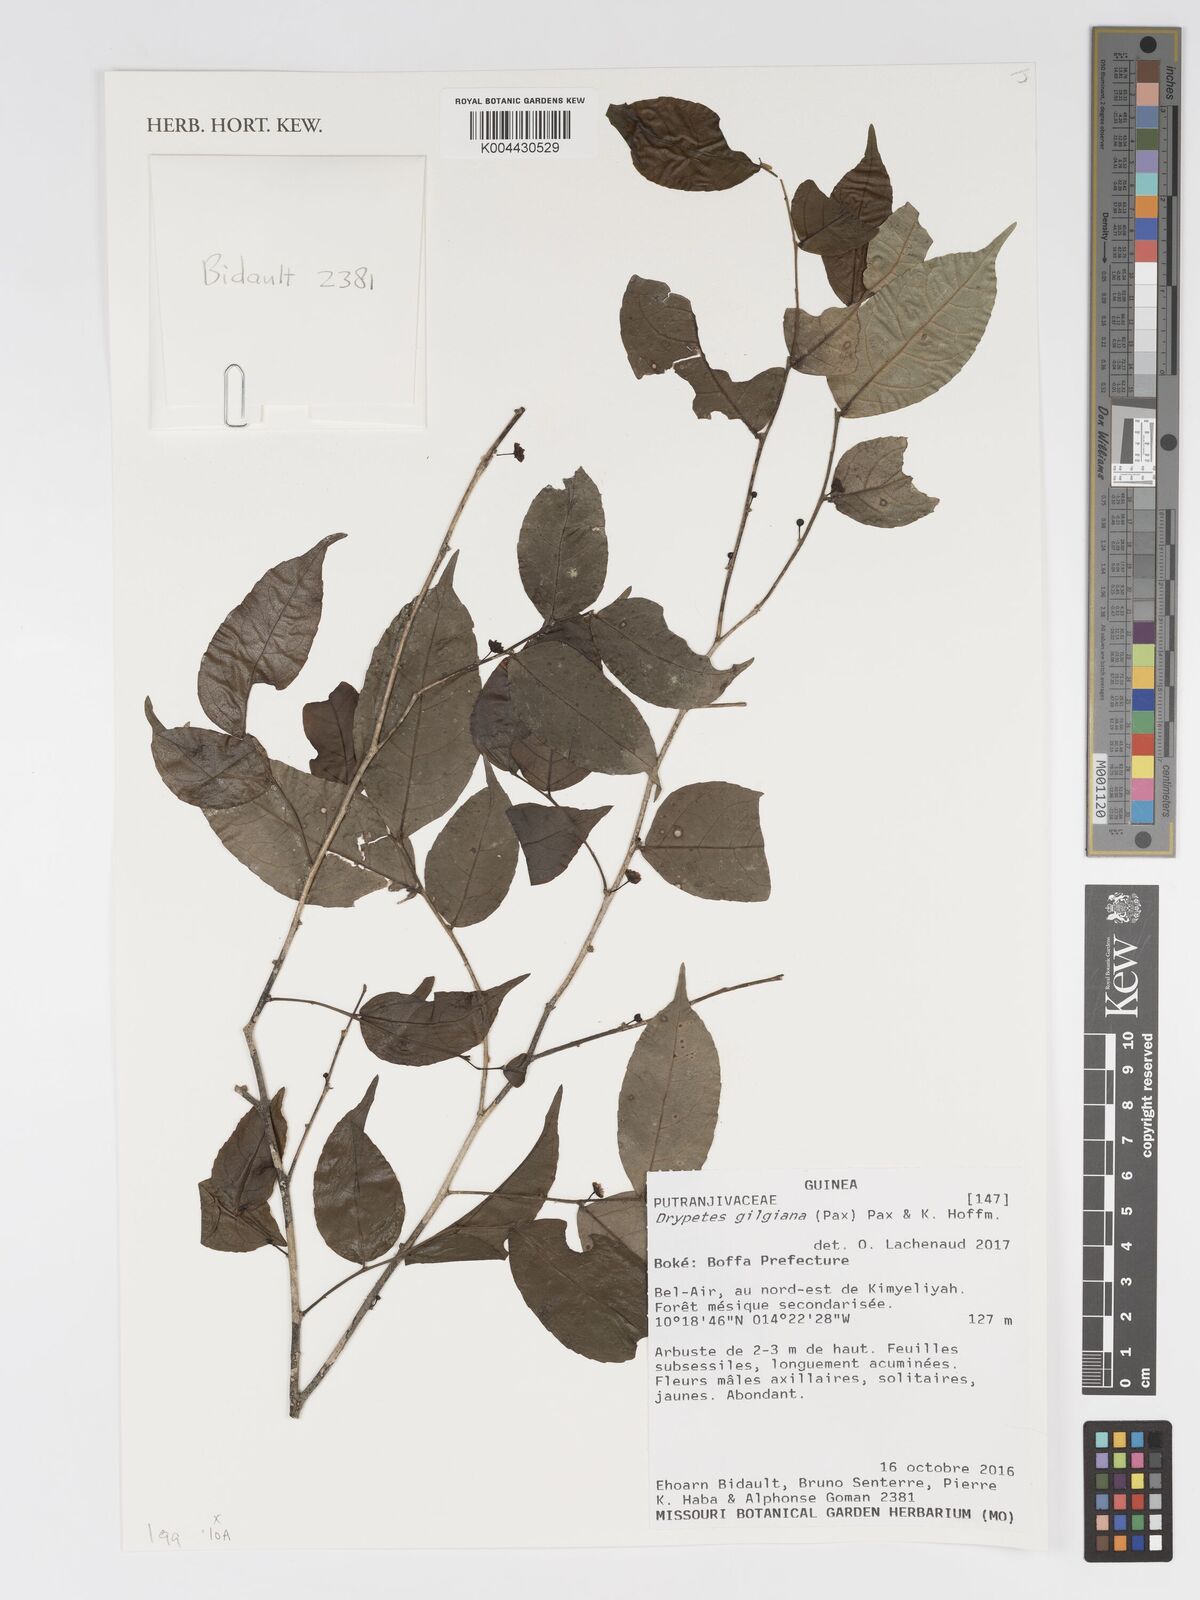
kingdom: Plantae
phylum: Tracheophyta
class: Magnoliopsida
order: Malpighiales
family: Putranjivaceae
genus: Drypetes
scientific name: Drypetes gilgiana
